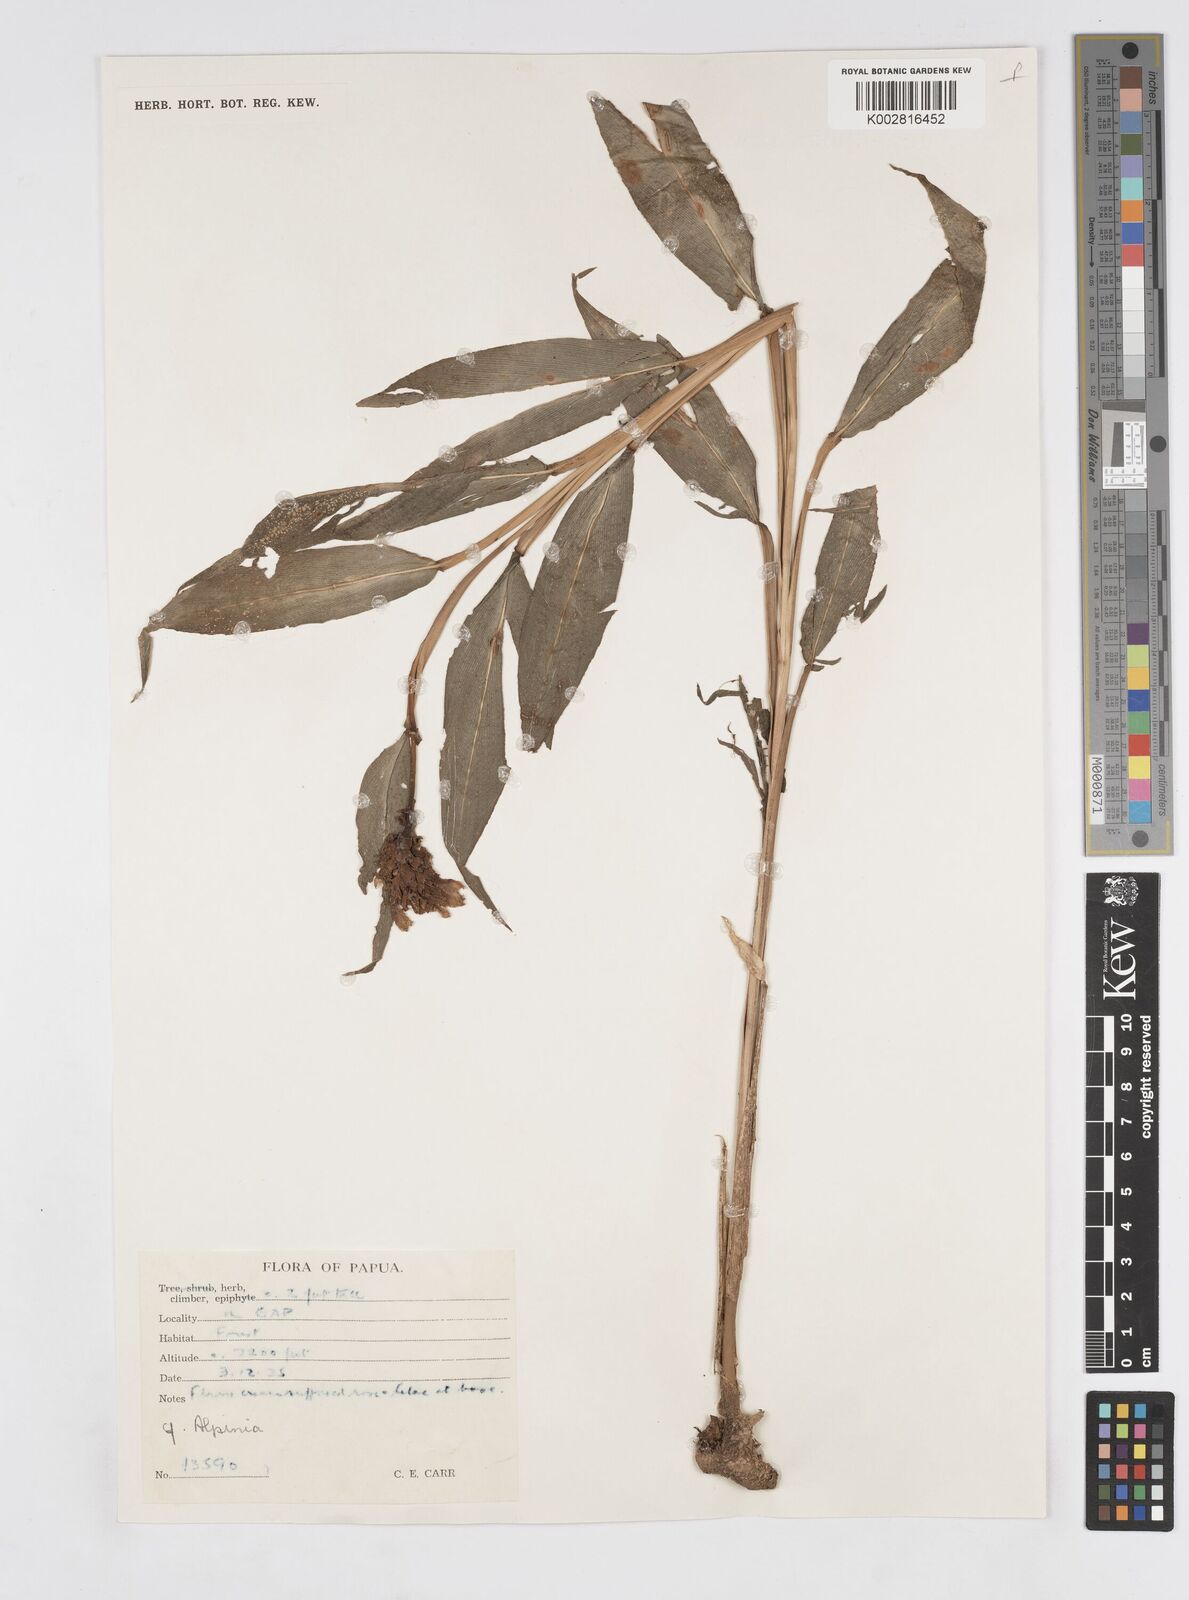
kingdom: Plantae
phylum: Tracheophyta
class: Liliopsida
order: Zingiberales
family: Zingiberaceae
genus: Alpinia
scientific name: Alpinia
